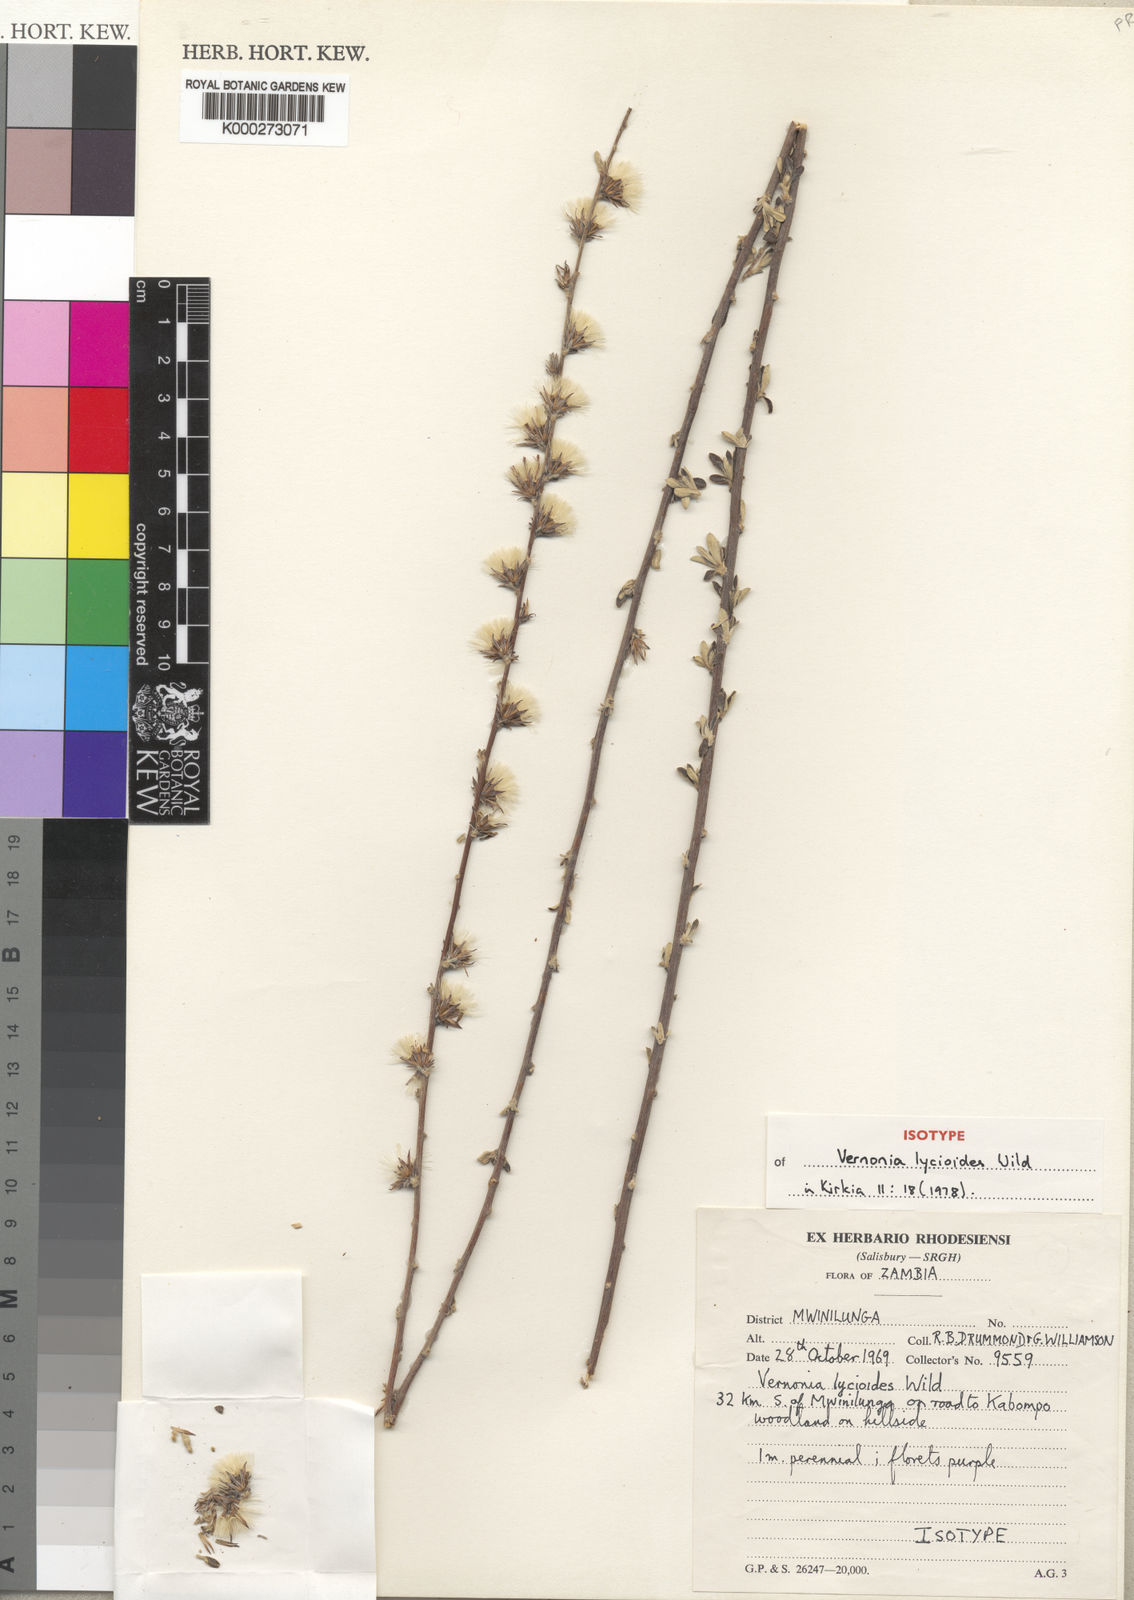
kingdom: Plantae
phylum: Tracheophyta
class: Magnoliopsida
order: Asterales
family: Asteraceae
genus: Vernonia
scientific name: Vernonia lycioides
